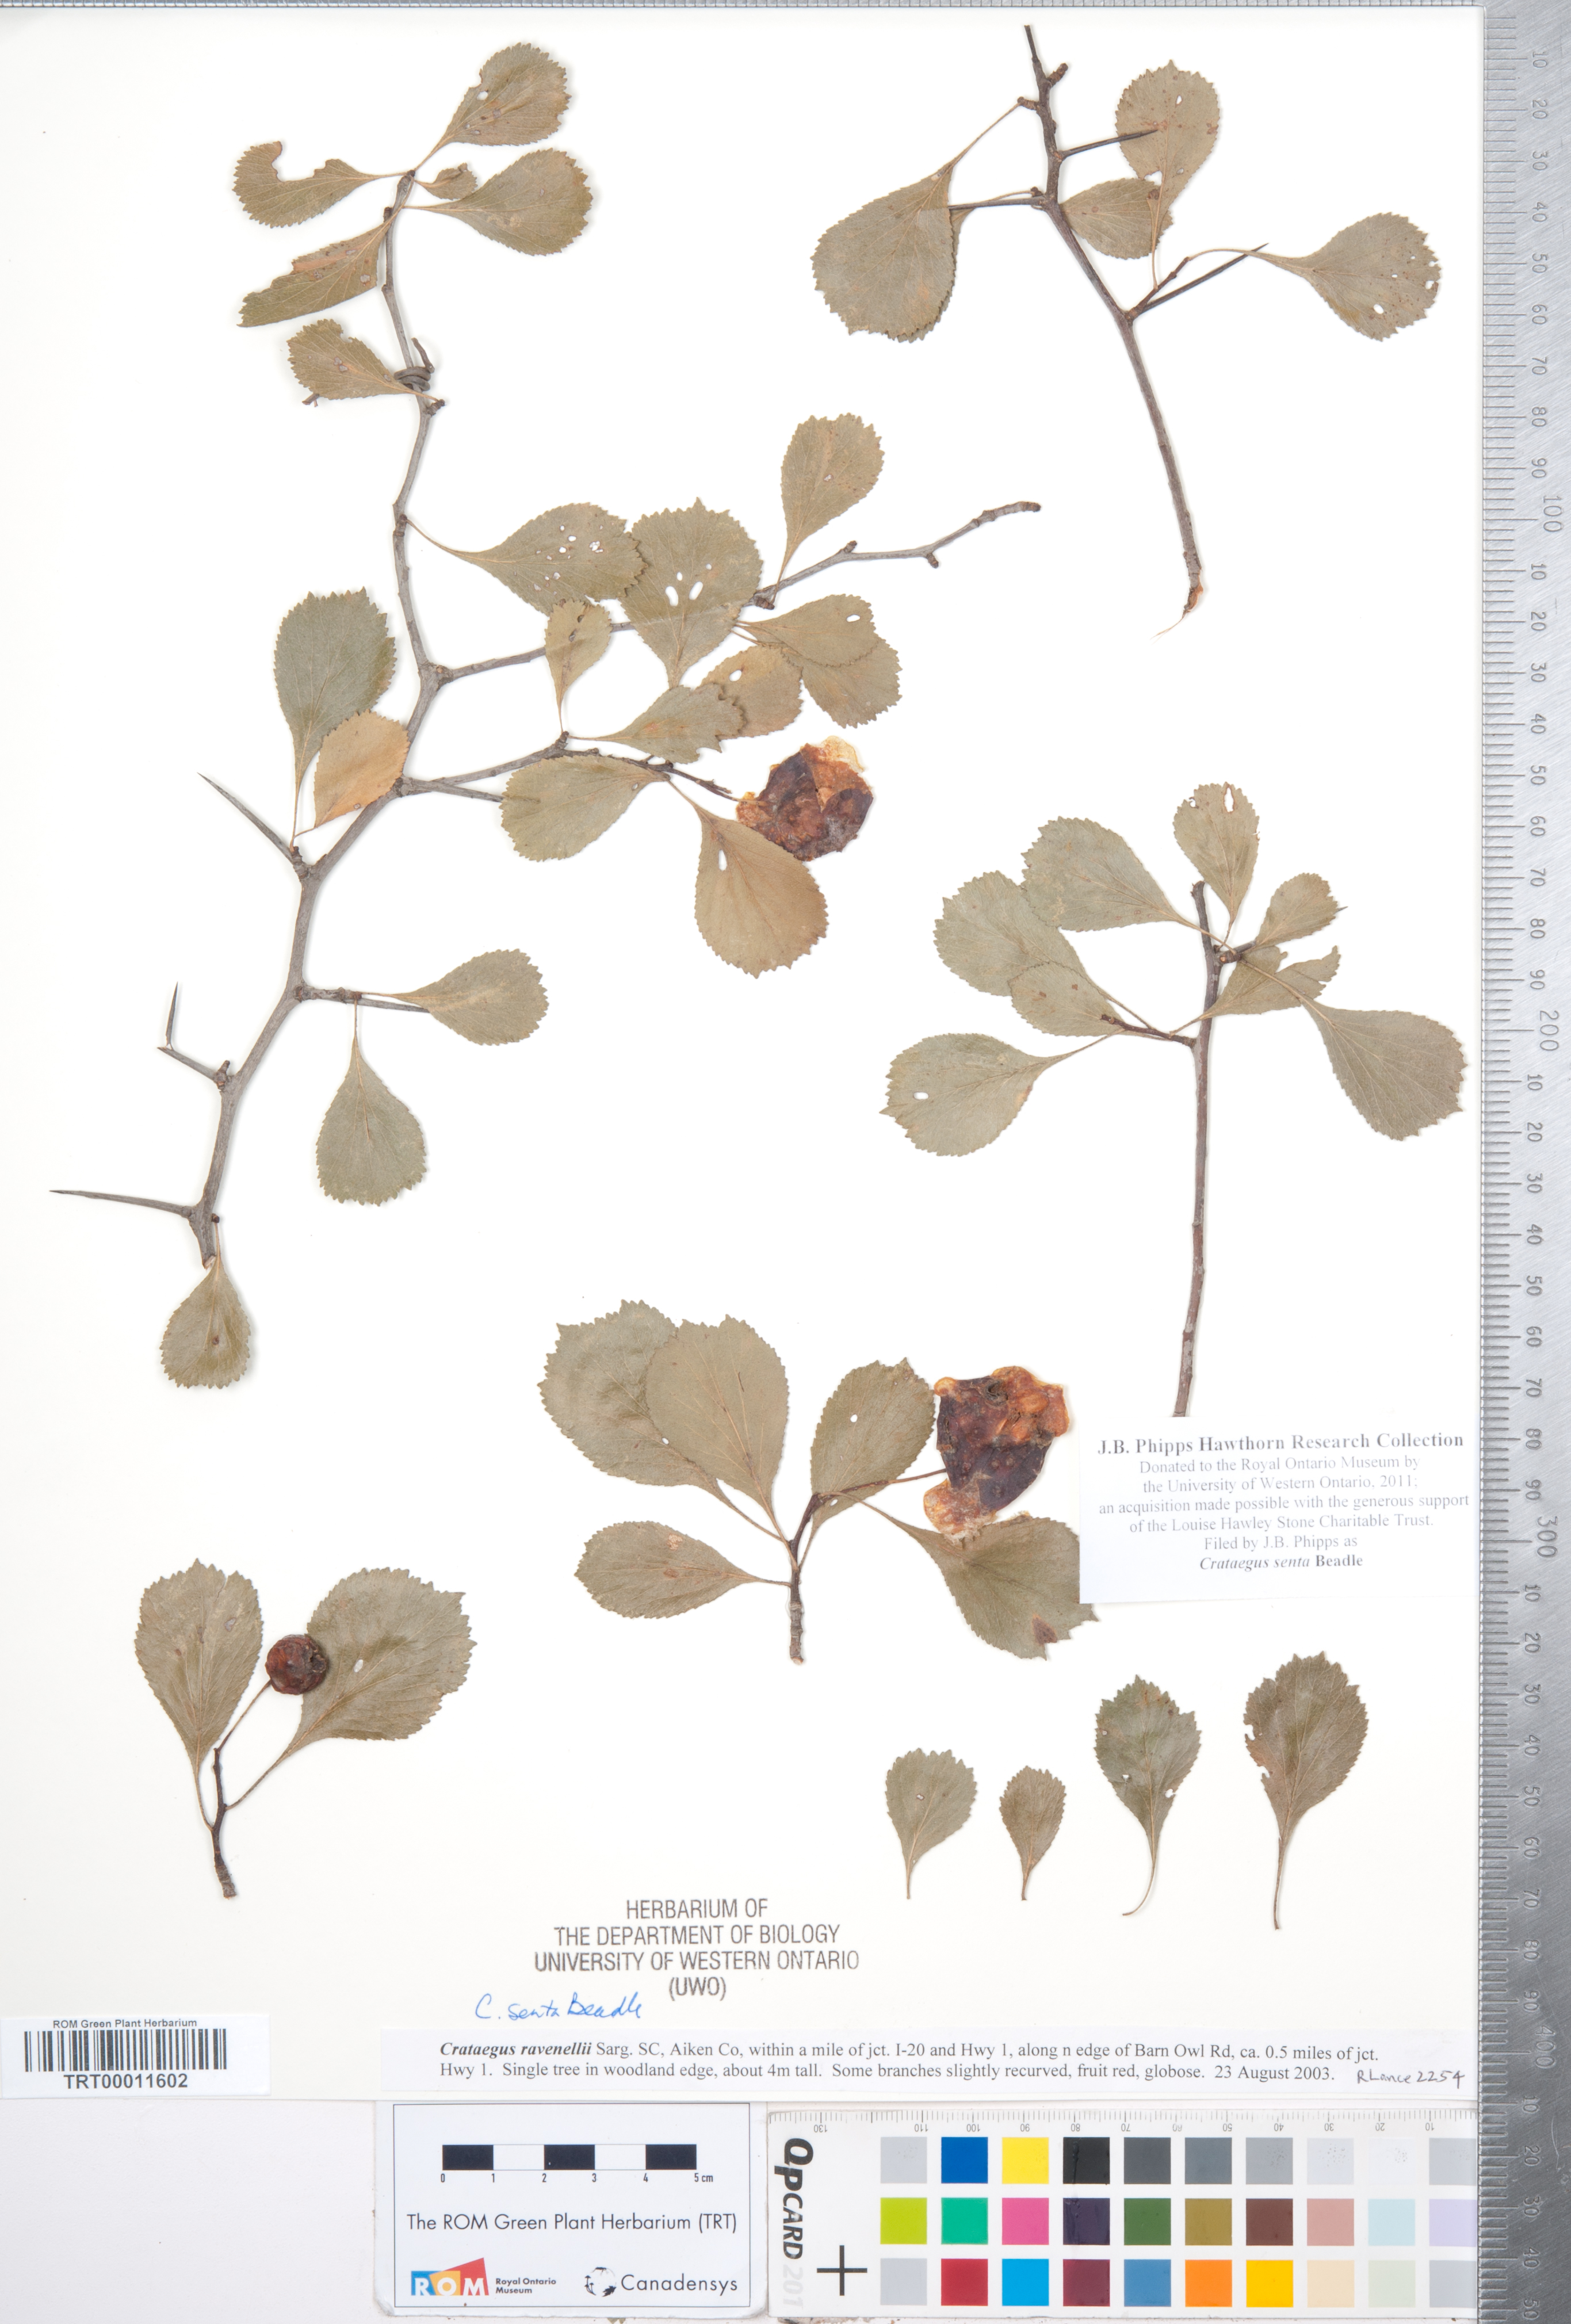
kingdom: Plantae
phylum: Tracheophyta
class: Magnoliopsida
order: Rosales
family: Rosaceae
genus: Crataegus
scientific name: Crataegus senta
